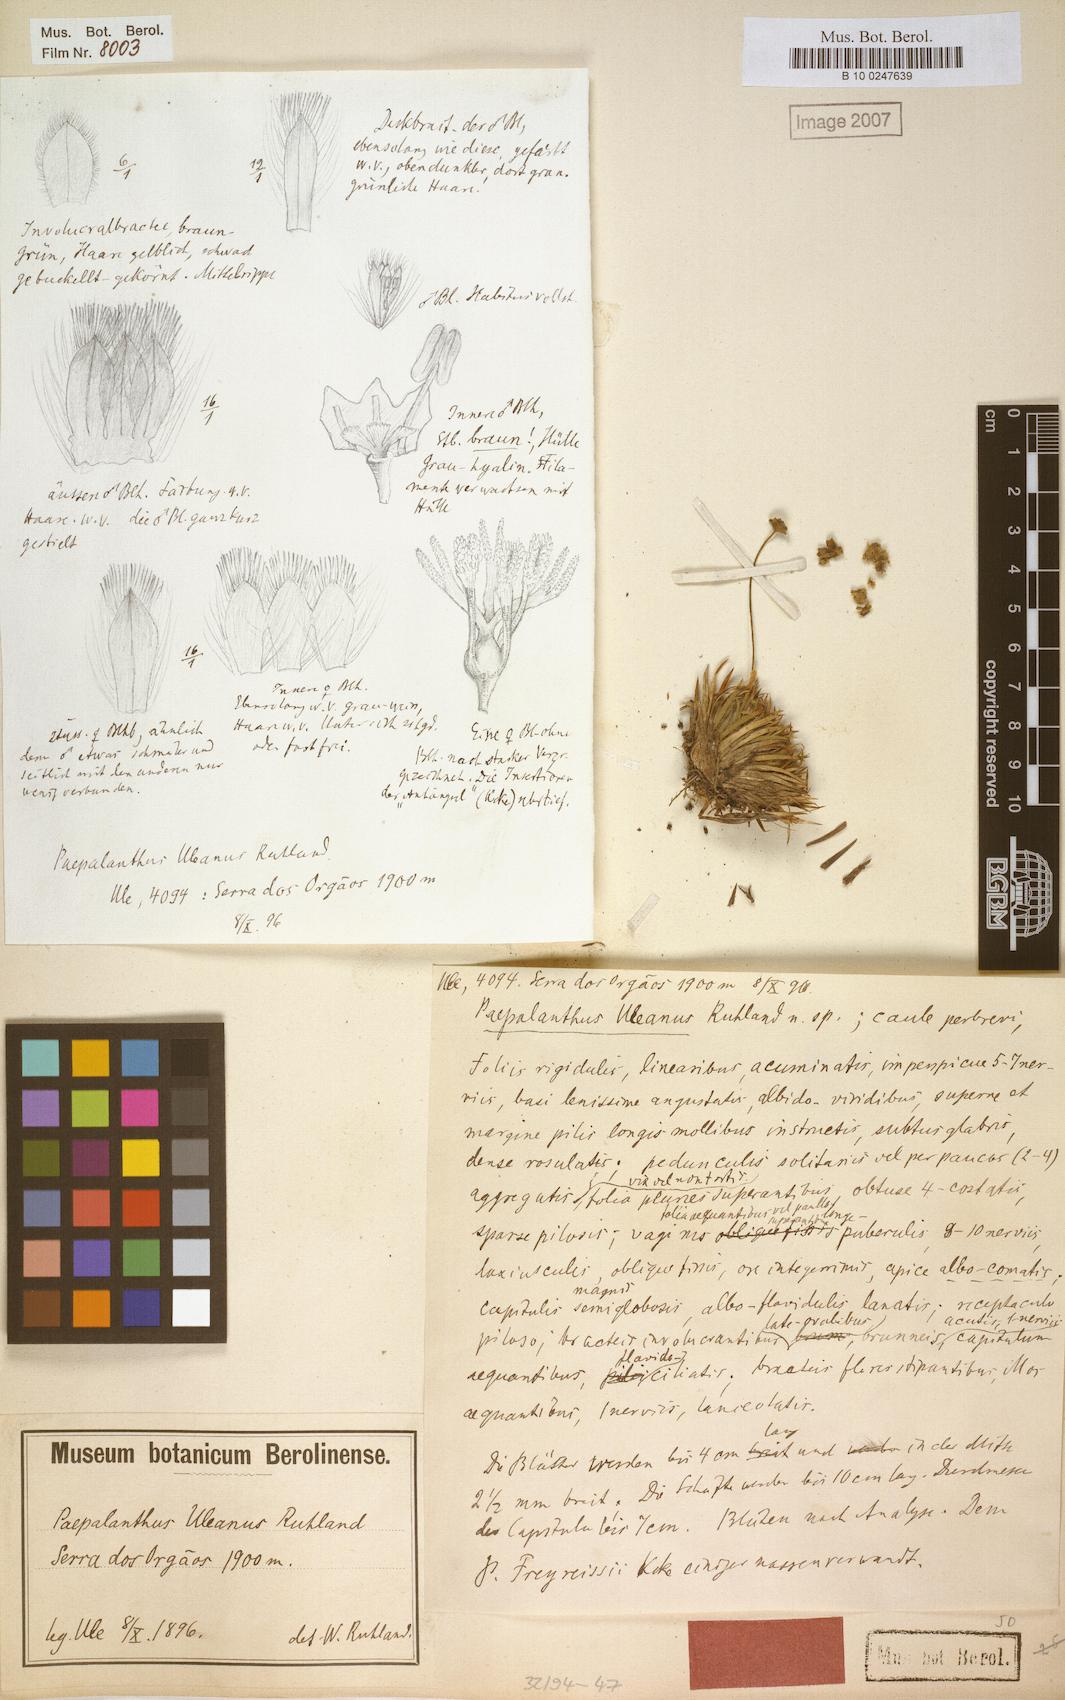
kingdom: Plantae
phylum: Tracheophyta
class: Liliopsida
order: Poales
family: Eriocaulaceae
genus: Paepalanthus
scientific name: Paepalanthus uleanus
